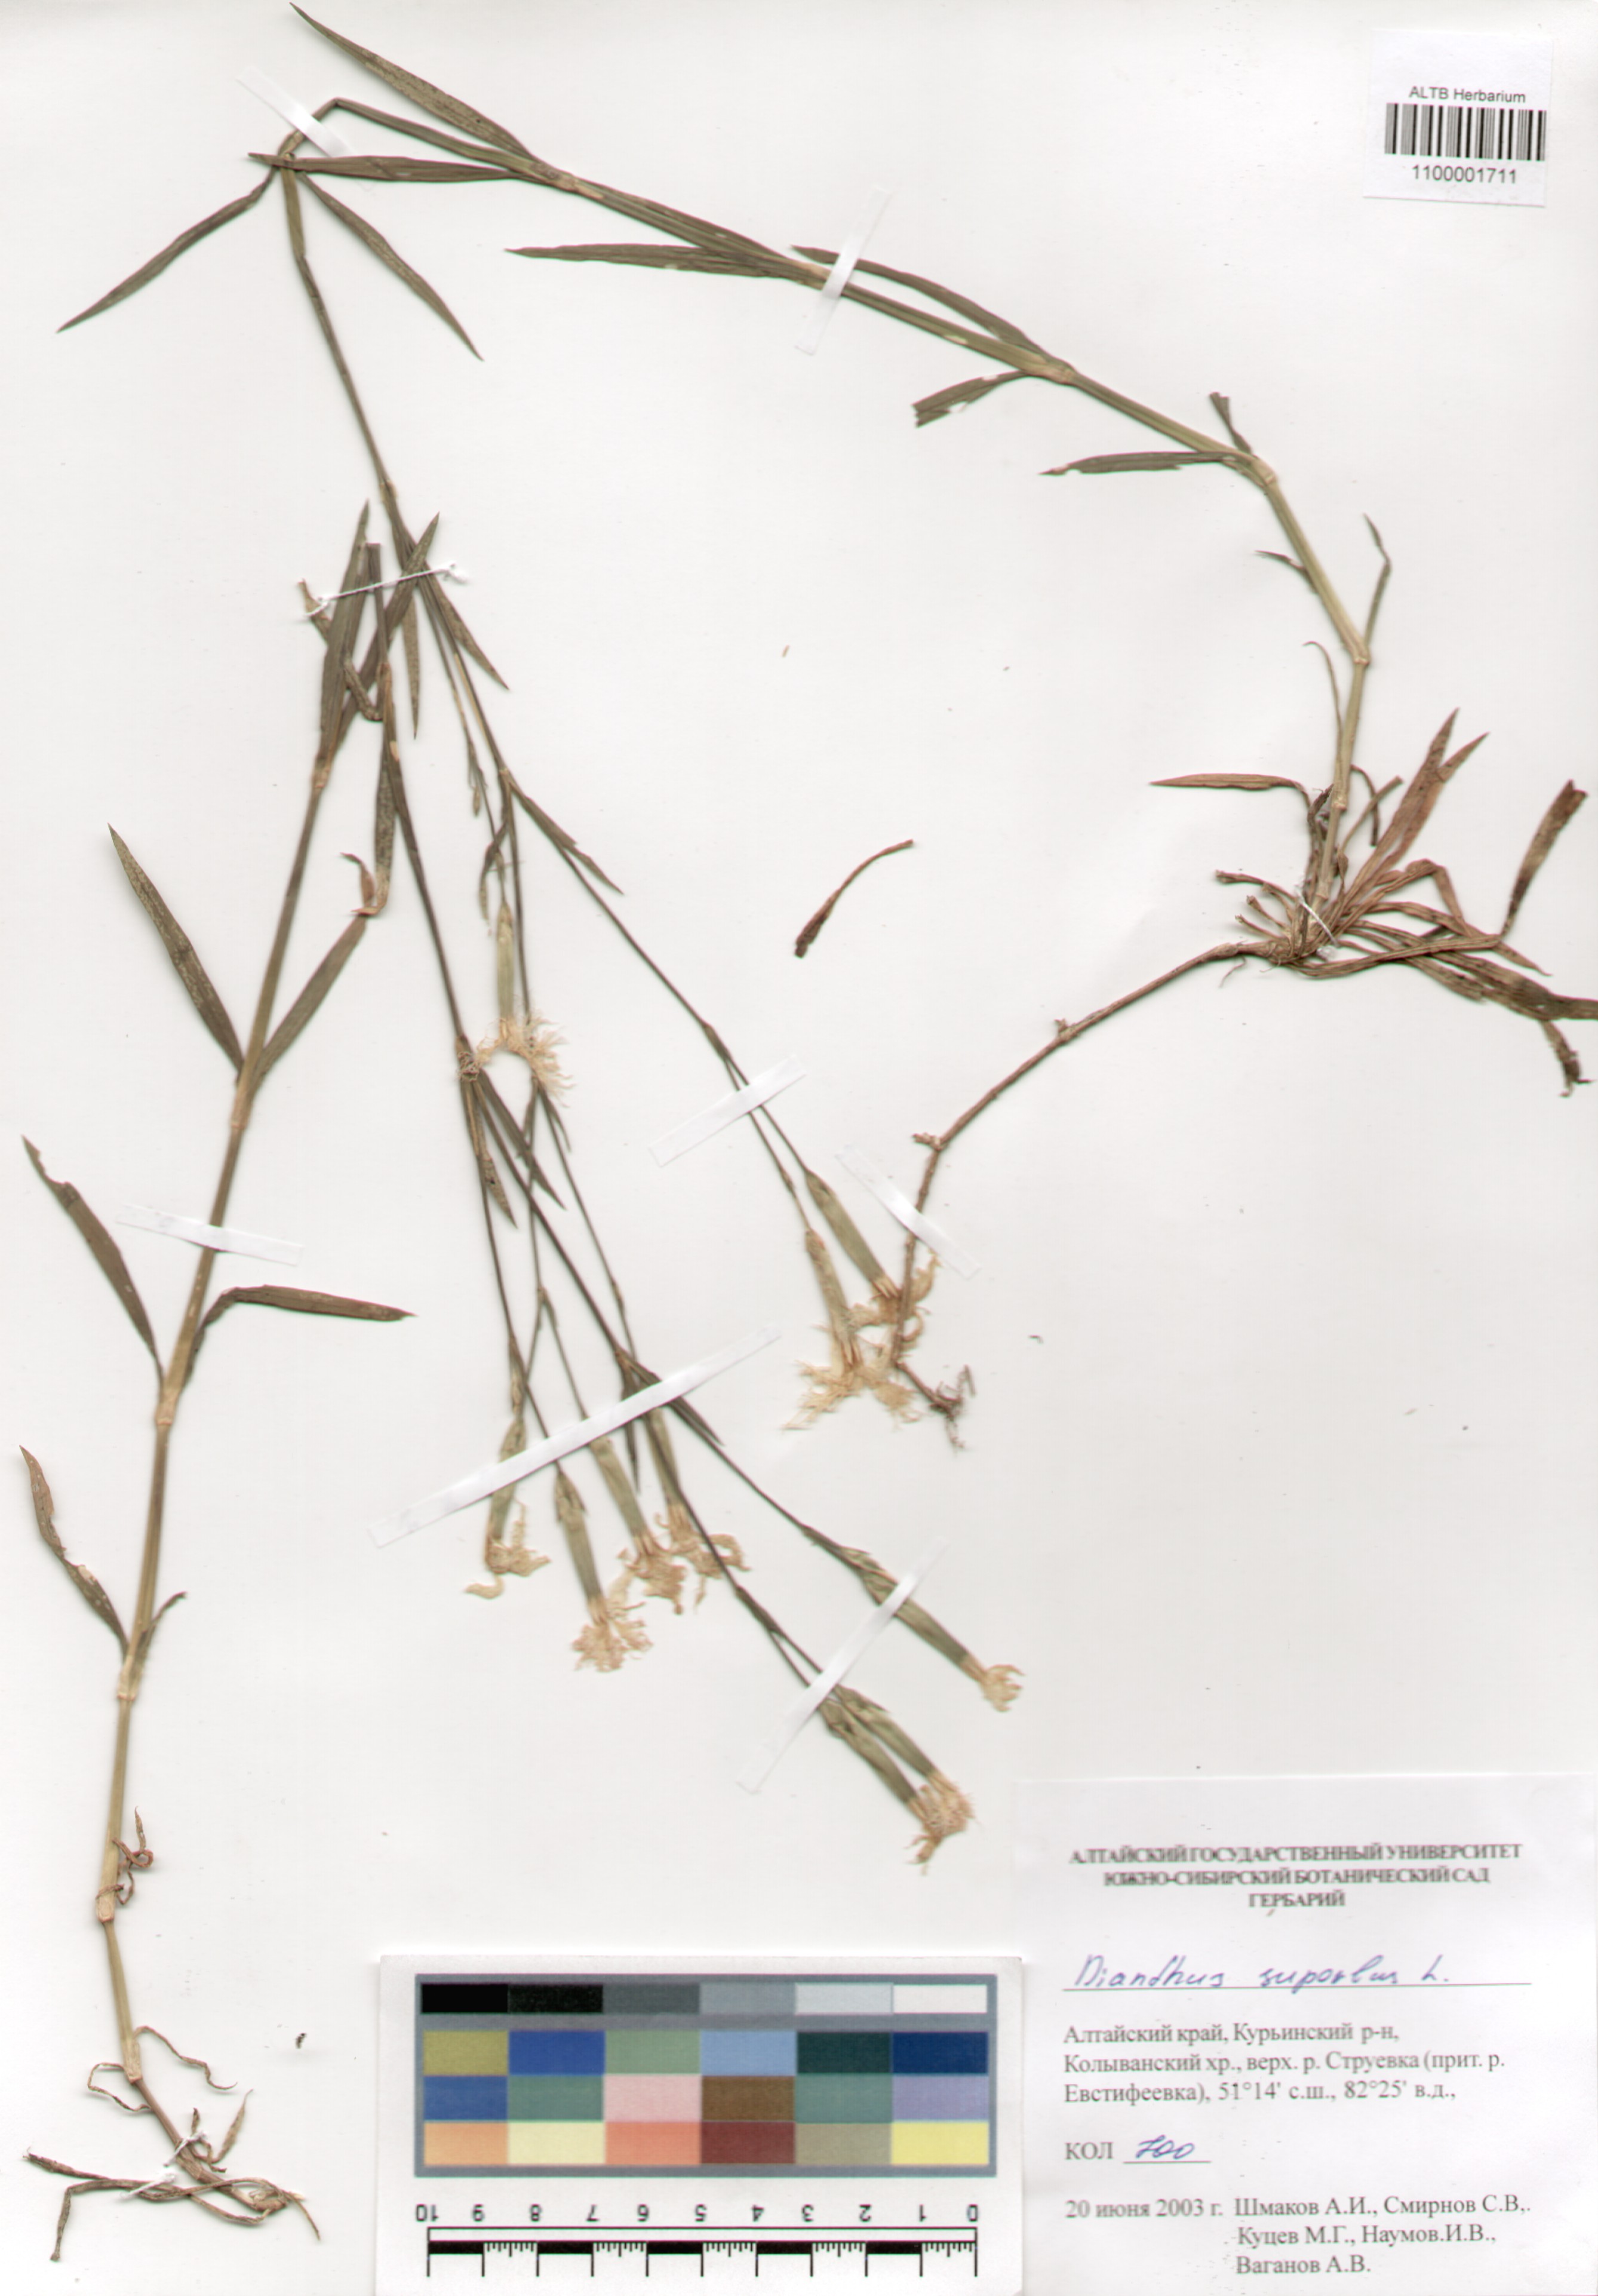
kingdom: Plantae
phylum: Tracheophyta
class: Magnoliopsida
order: Caryophyllales
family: Caryophyllaceae
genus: Dianthus
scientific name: Dianthus superbus
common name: Fringed pink
